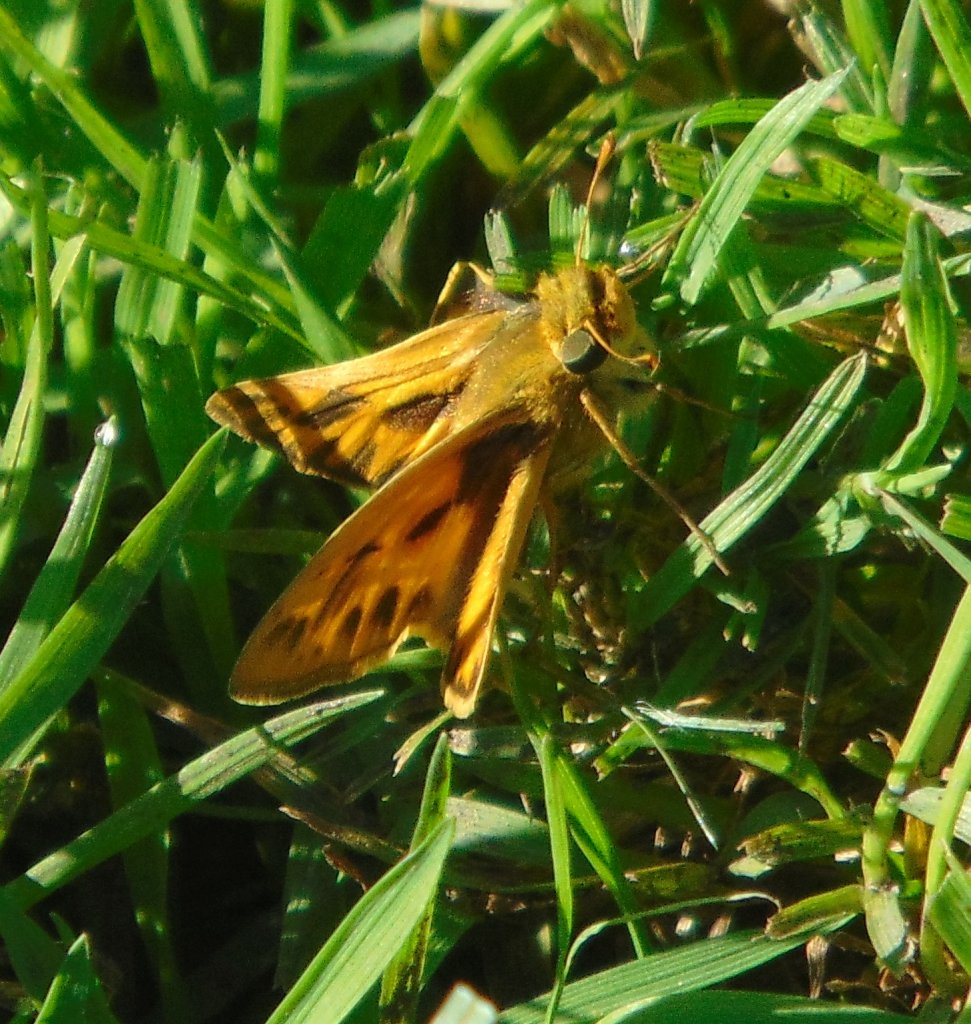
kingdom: Animalia
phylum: Arthropoda
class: Insecta
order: Lepidoptera
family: Hesperiidae
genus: Hylephila
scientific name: Hylephila phyleus
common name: Fiery Skipper
